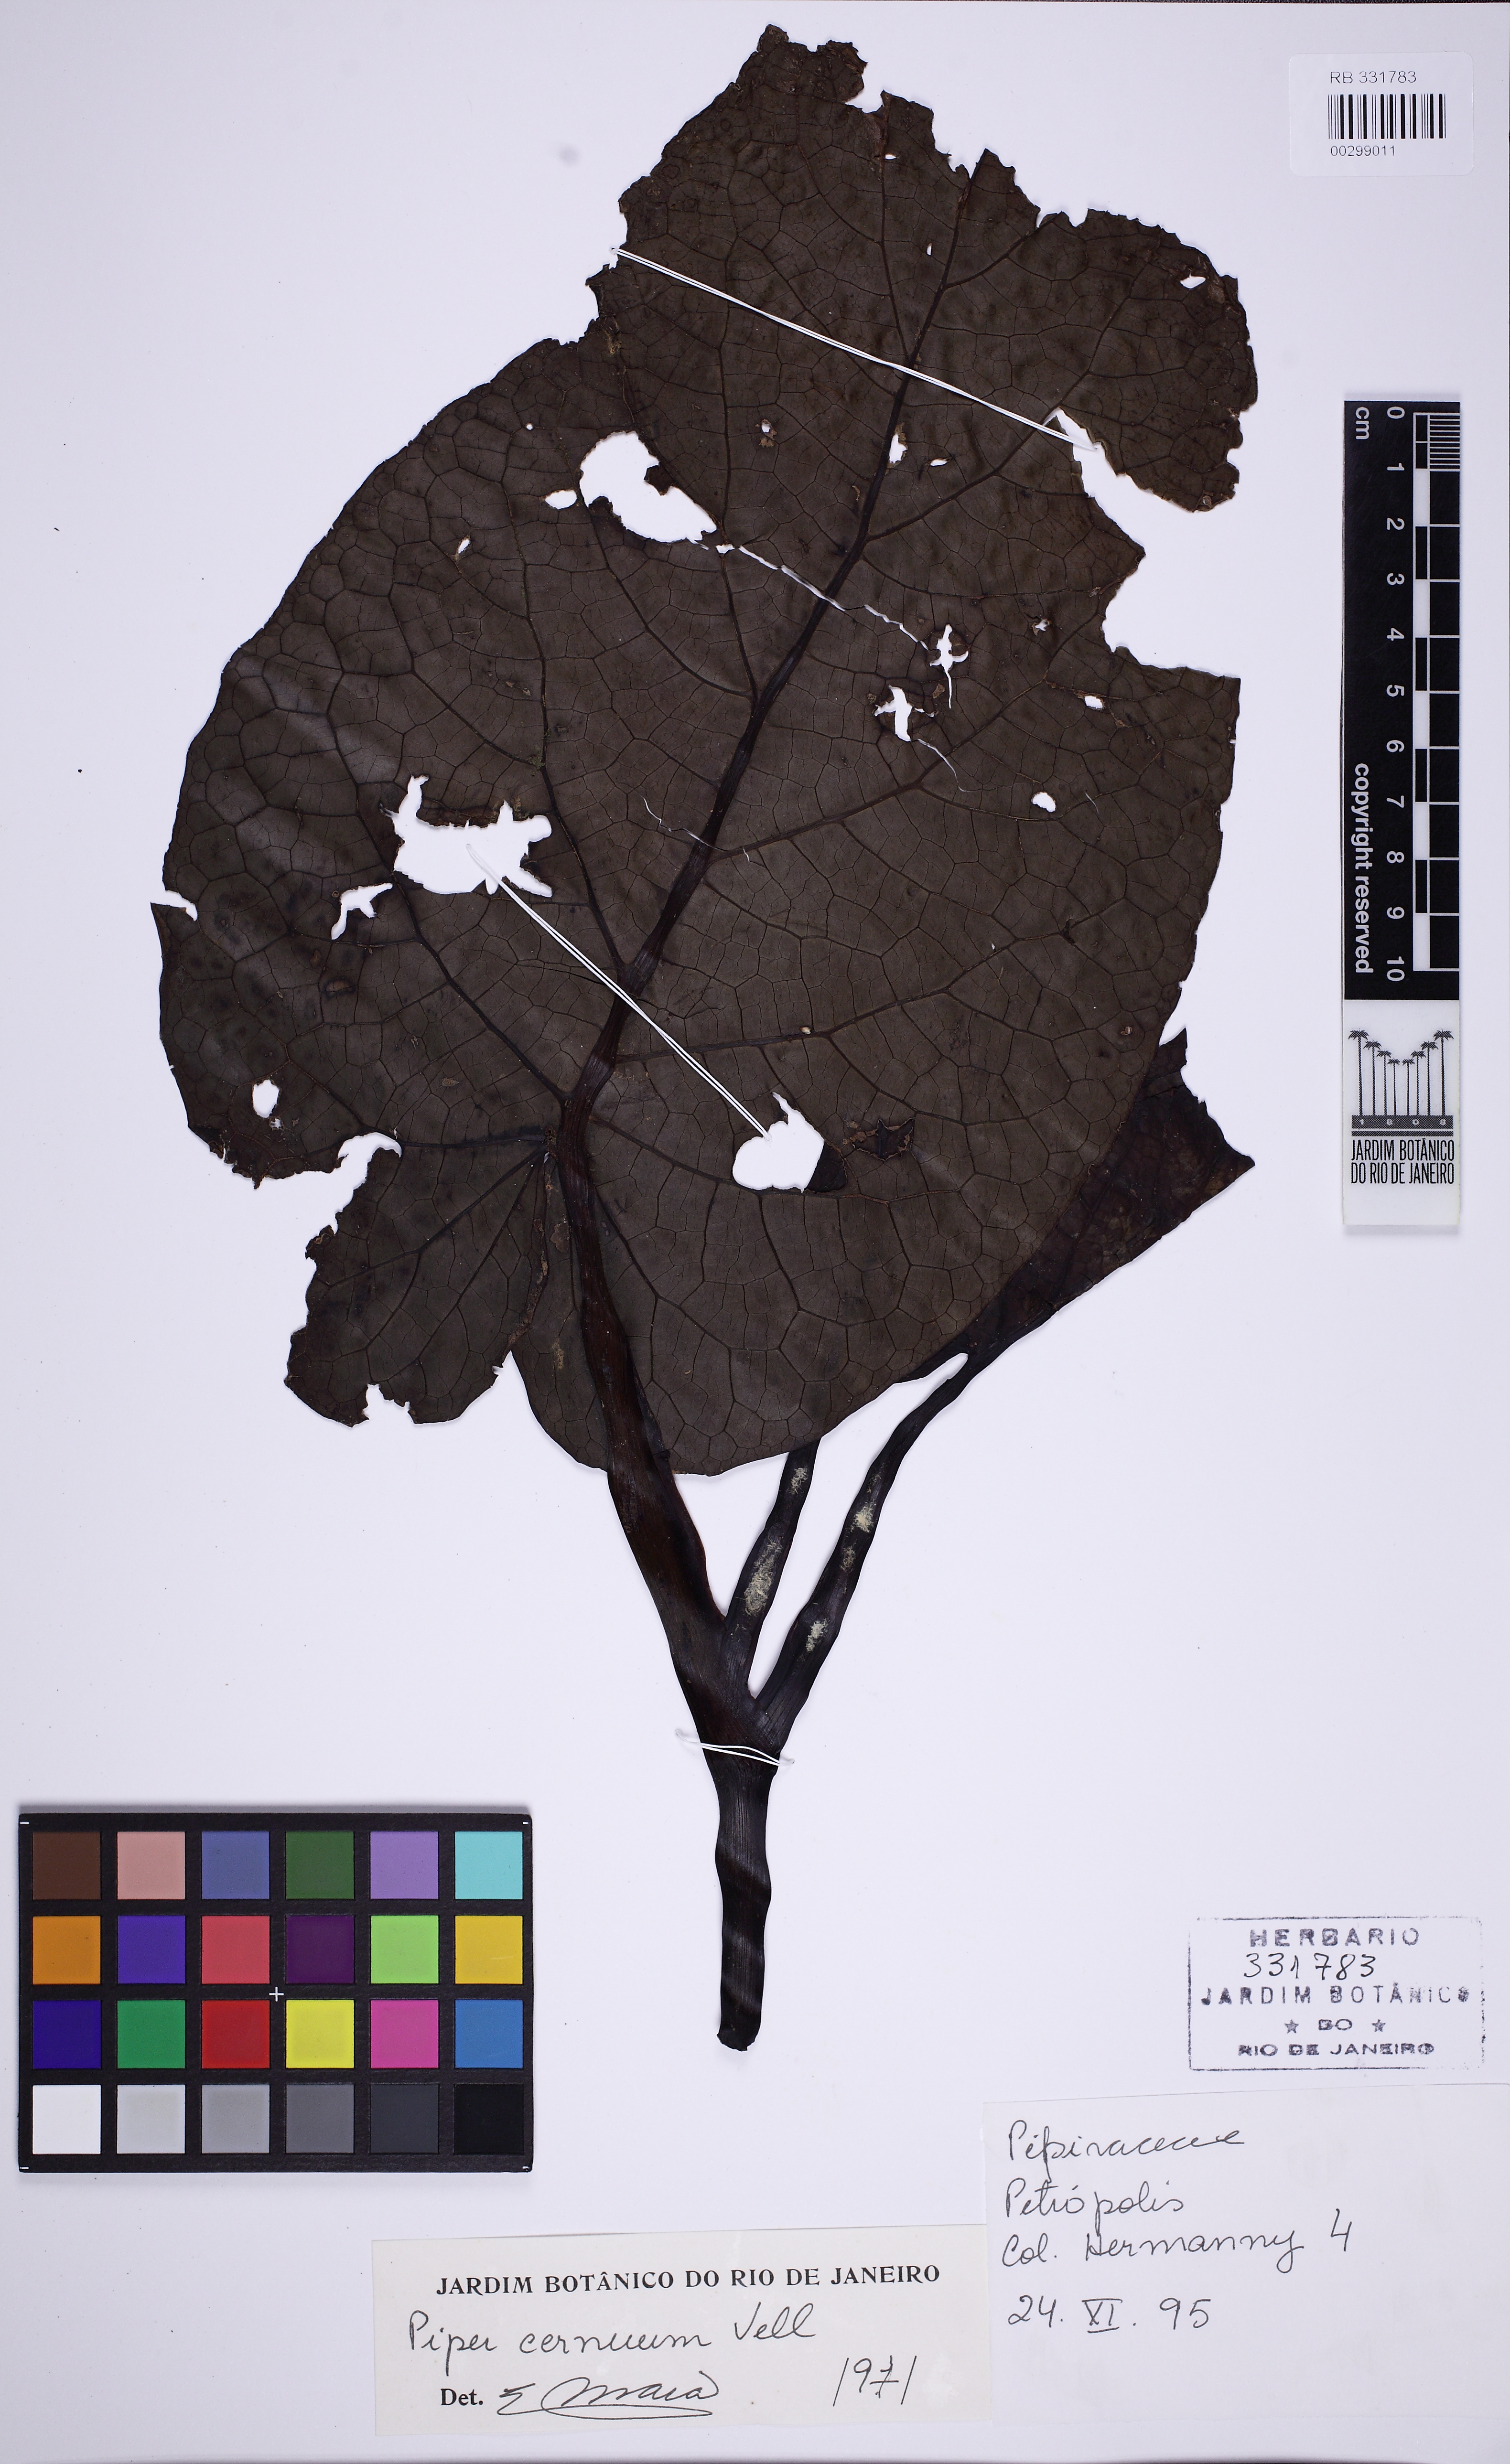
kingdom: Plantae
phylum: Tracheophyta
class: Magnoliopsida
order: Piperales
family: Piperaceae
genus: Piper
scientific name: Piper cernuum
